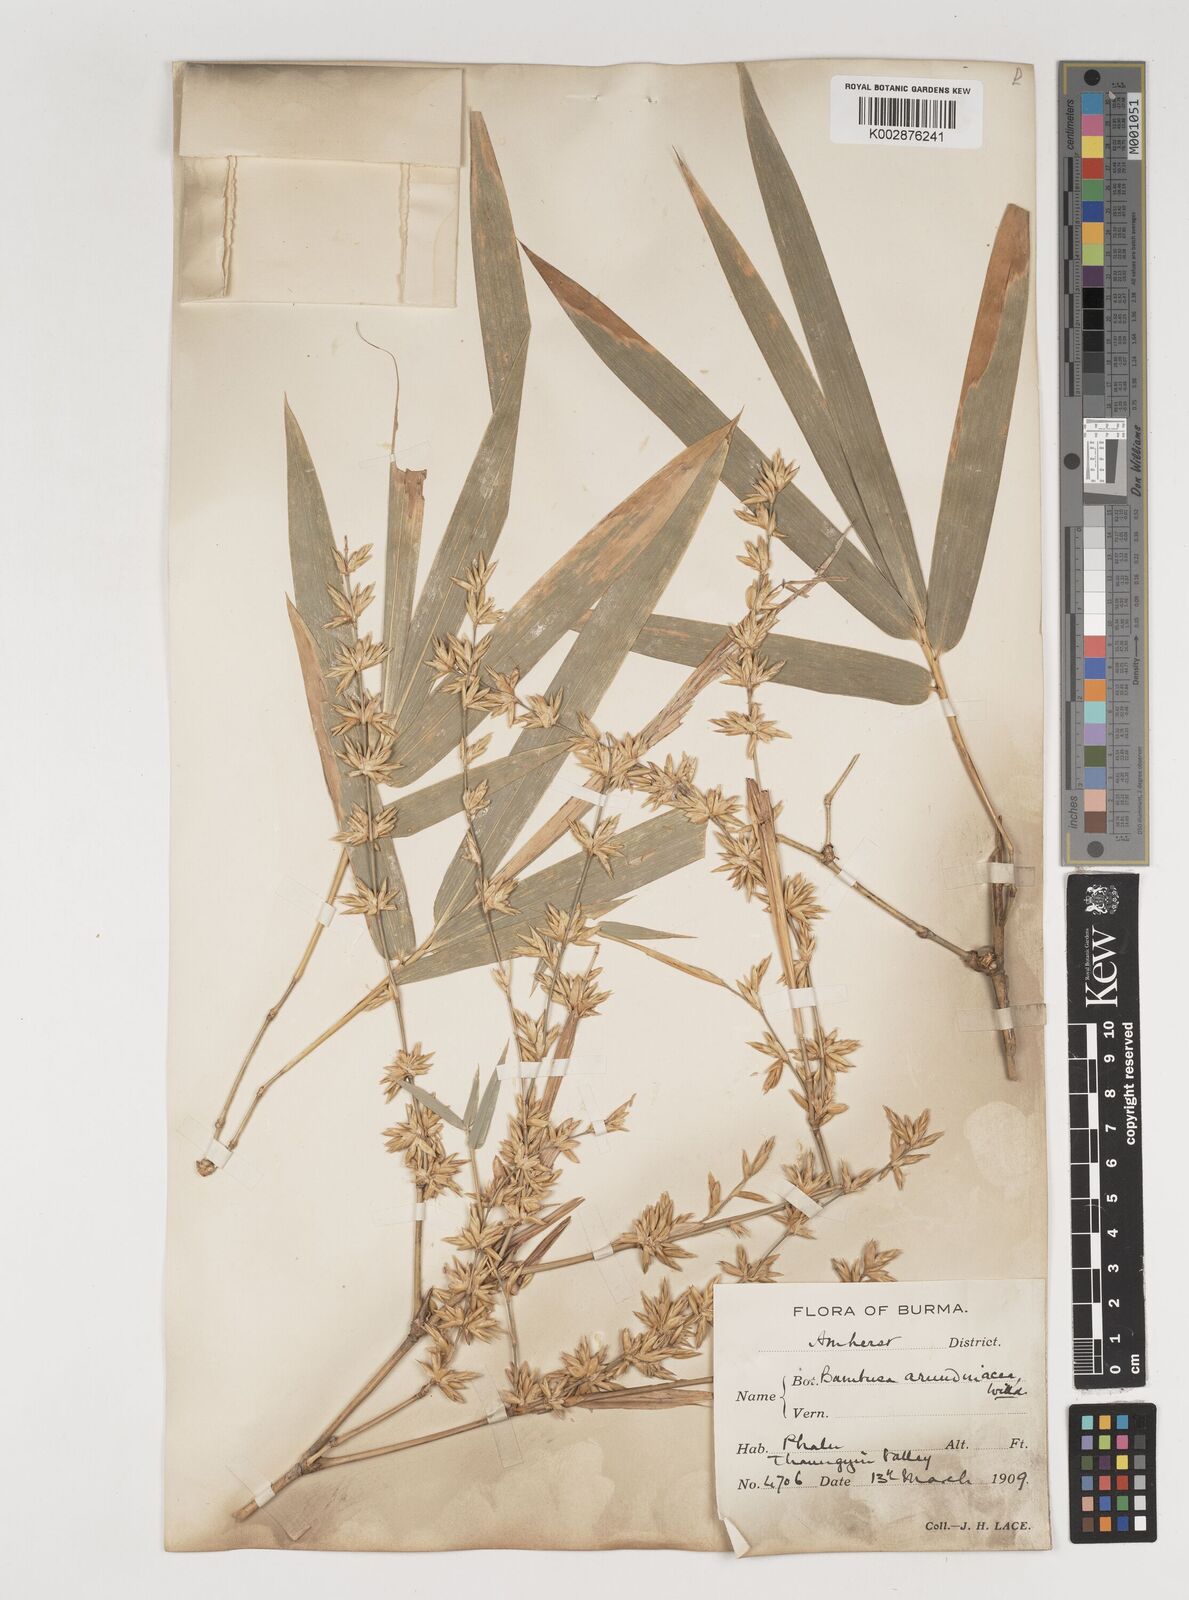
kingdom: Plantae
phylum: Tracheophyta
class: Liliopsida
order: Poales
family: Poaceae
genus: Bambusa
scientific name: Bambusa bambos
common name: Indian thorny bamboo
